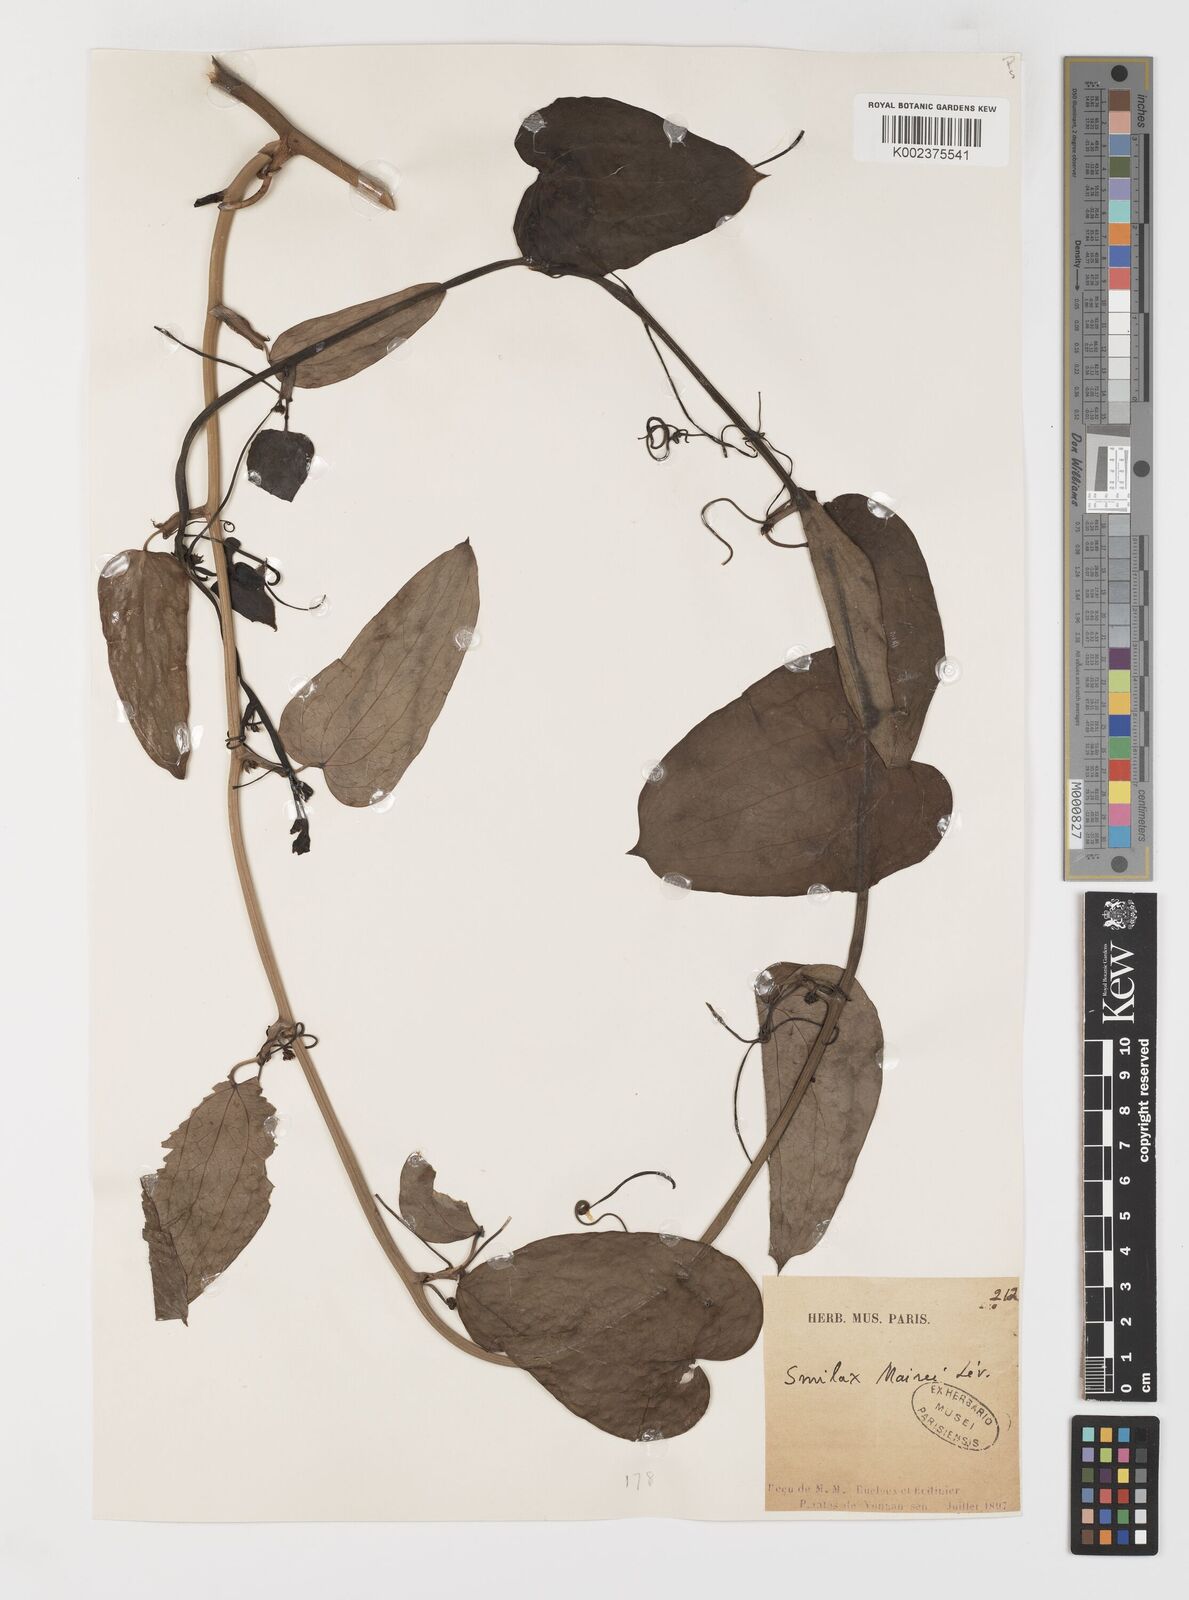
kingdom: Plantae
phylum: Tracheophyta
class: Liliopsida
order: Liliales
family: Smilacaceae
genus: Smilax
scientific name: Smilax lanceifolia
